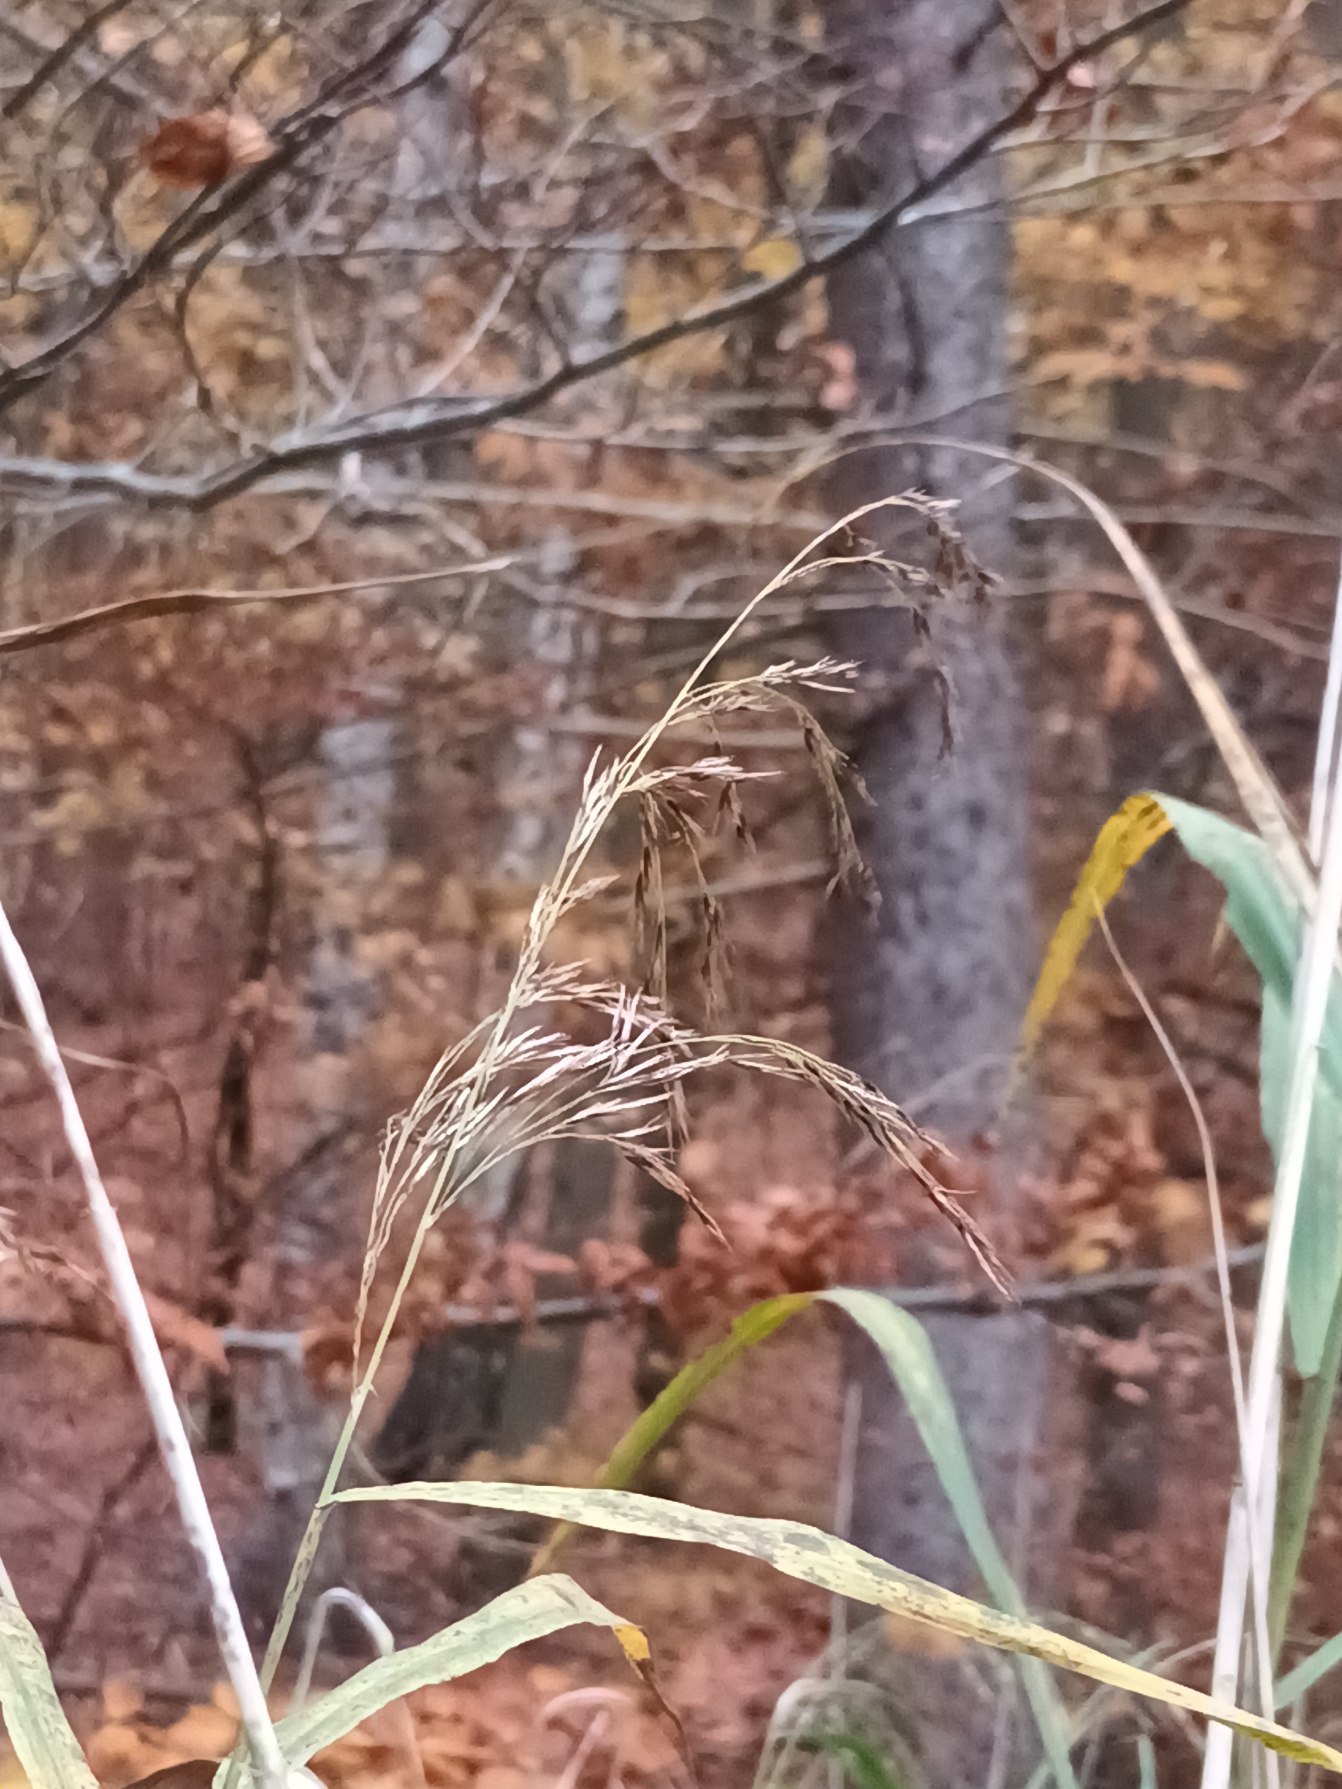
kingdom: Plantae
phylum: Tracheophyta
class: Liliopsida
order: Poales
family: Poaceae
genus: Phragmites
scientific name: Phragmites australis
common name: Tagrør
